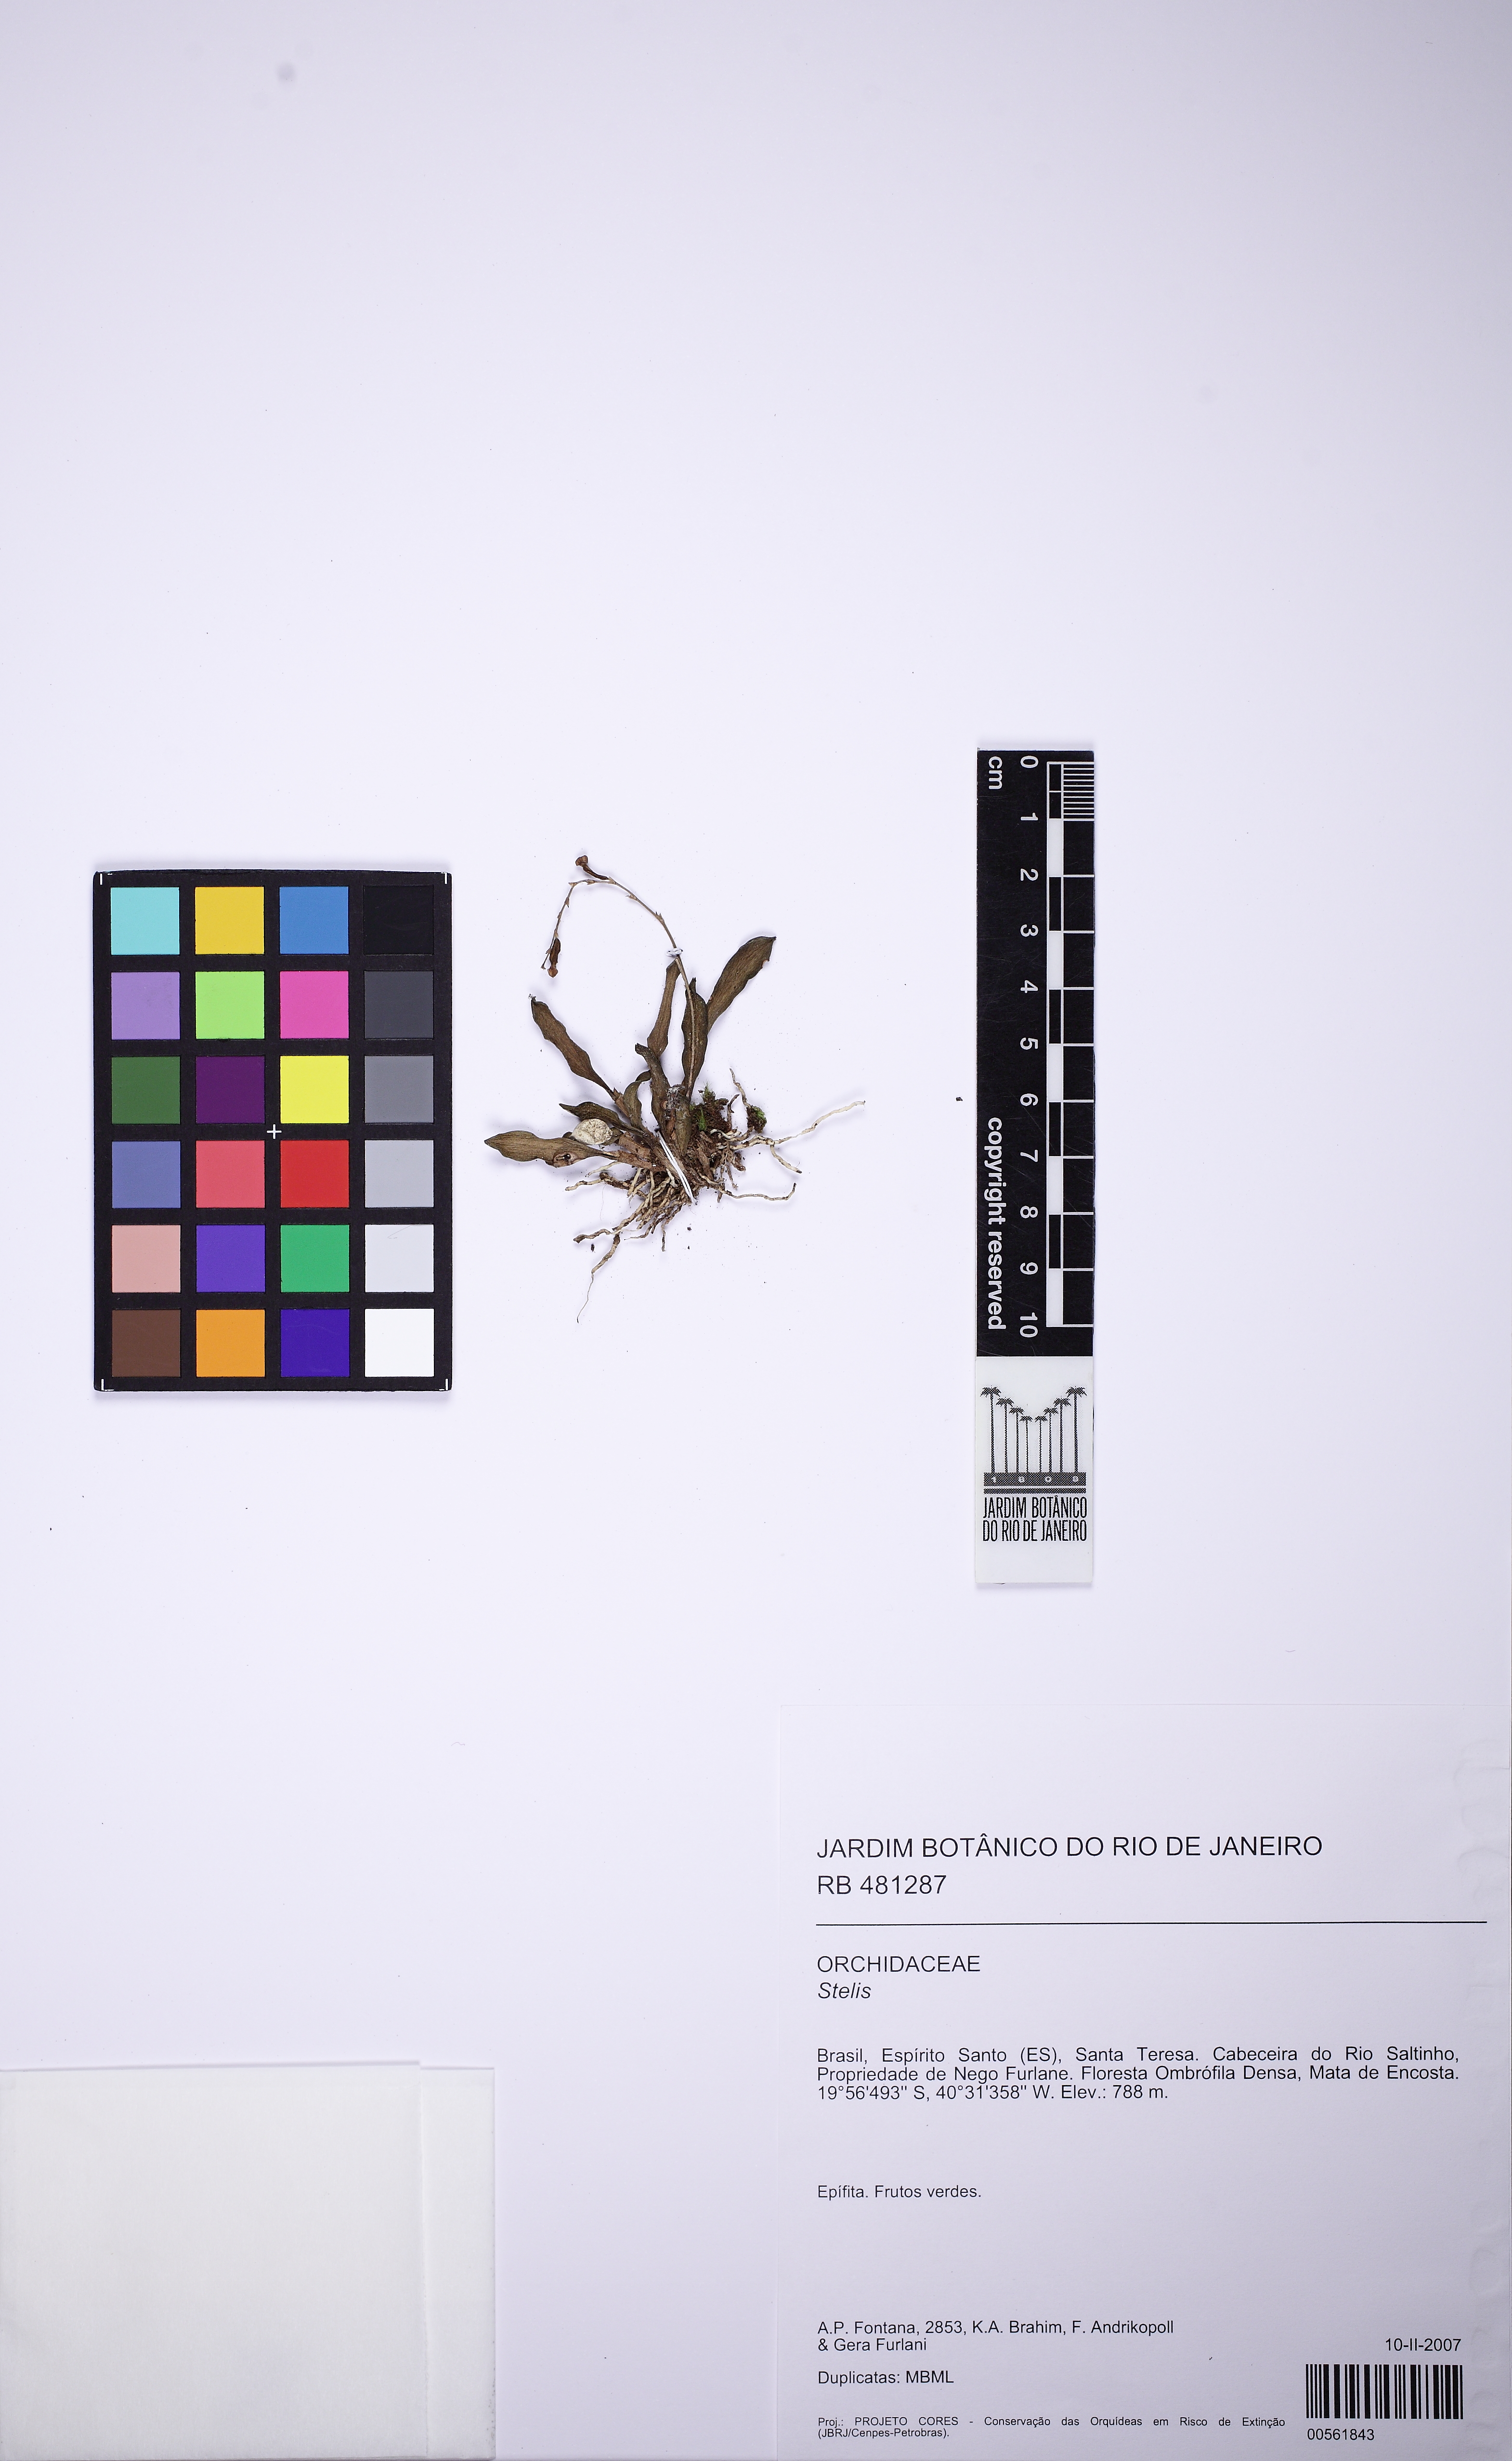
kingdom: Plantae
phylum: Tracheophyta
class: Liliopsida
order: Asparagales
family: Orchidaceae
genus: Stelis
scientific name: Stelis
